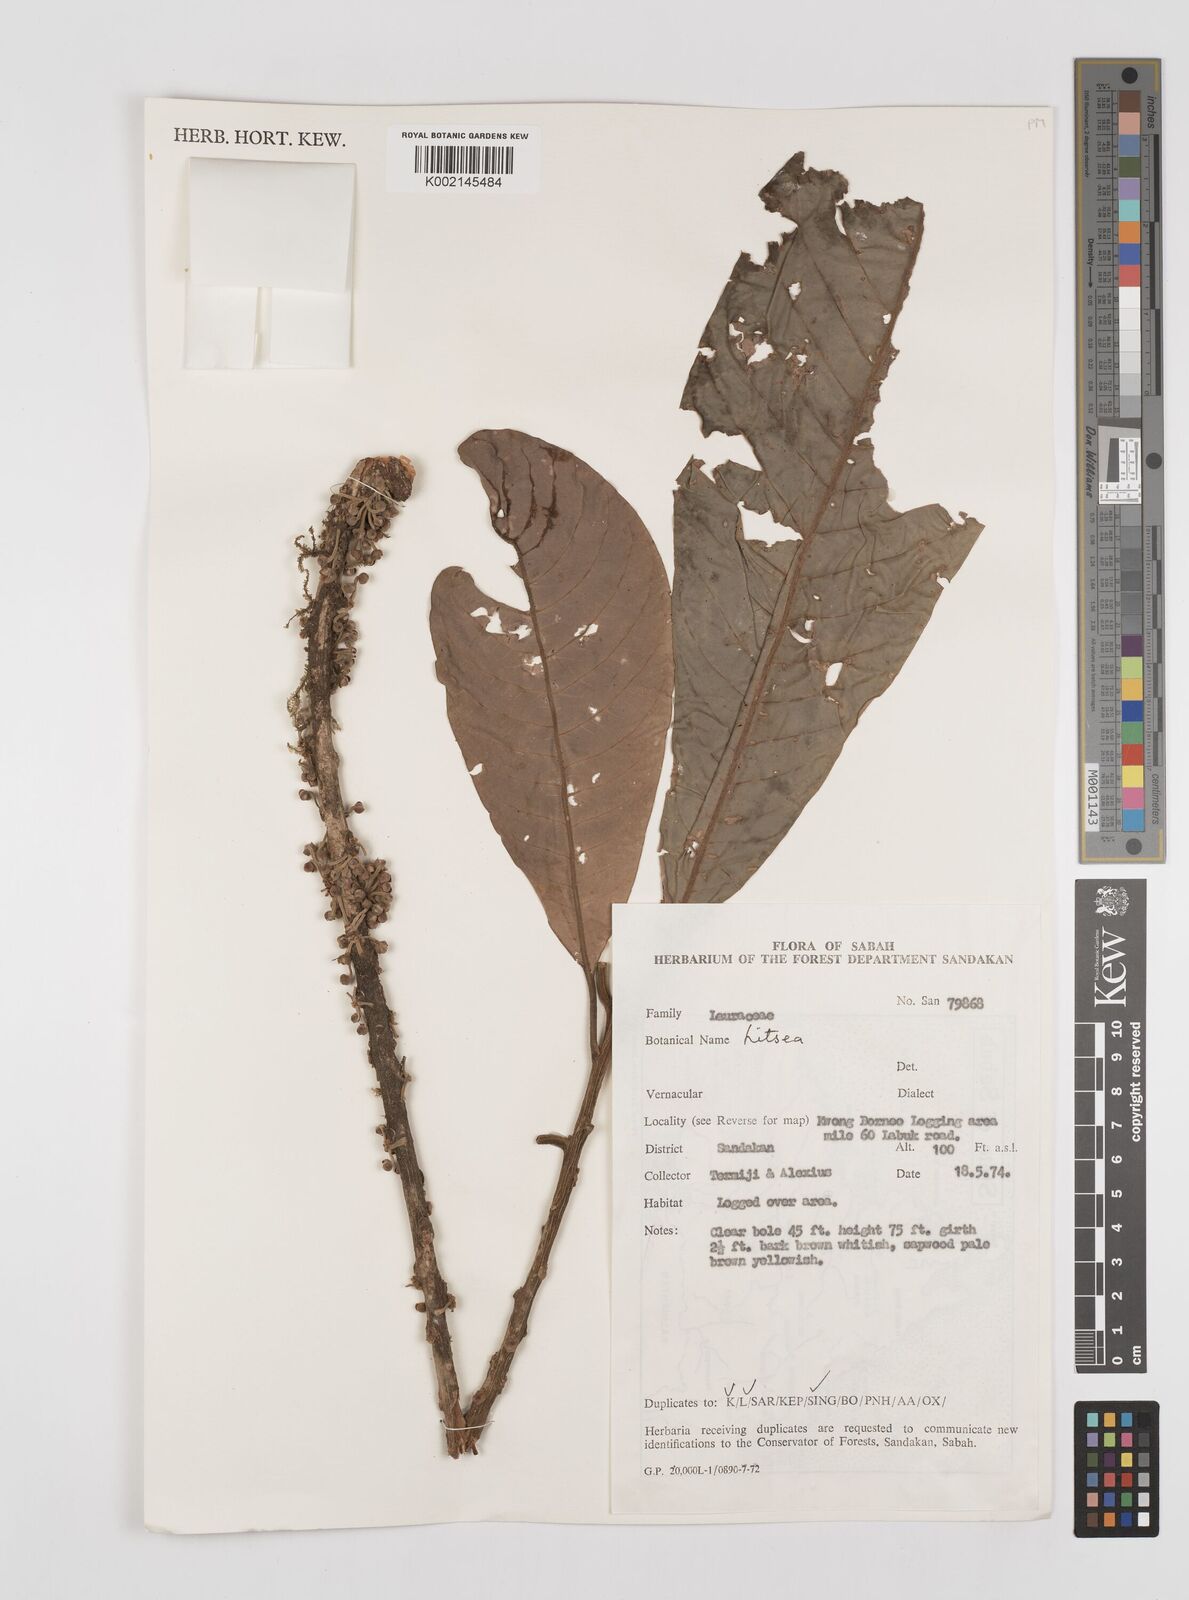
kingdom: Plantae
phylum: Tracheophyta
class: Magnoliopsida
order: Laurales
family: Lauraceae
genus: Litsea
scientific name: Litsea
